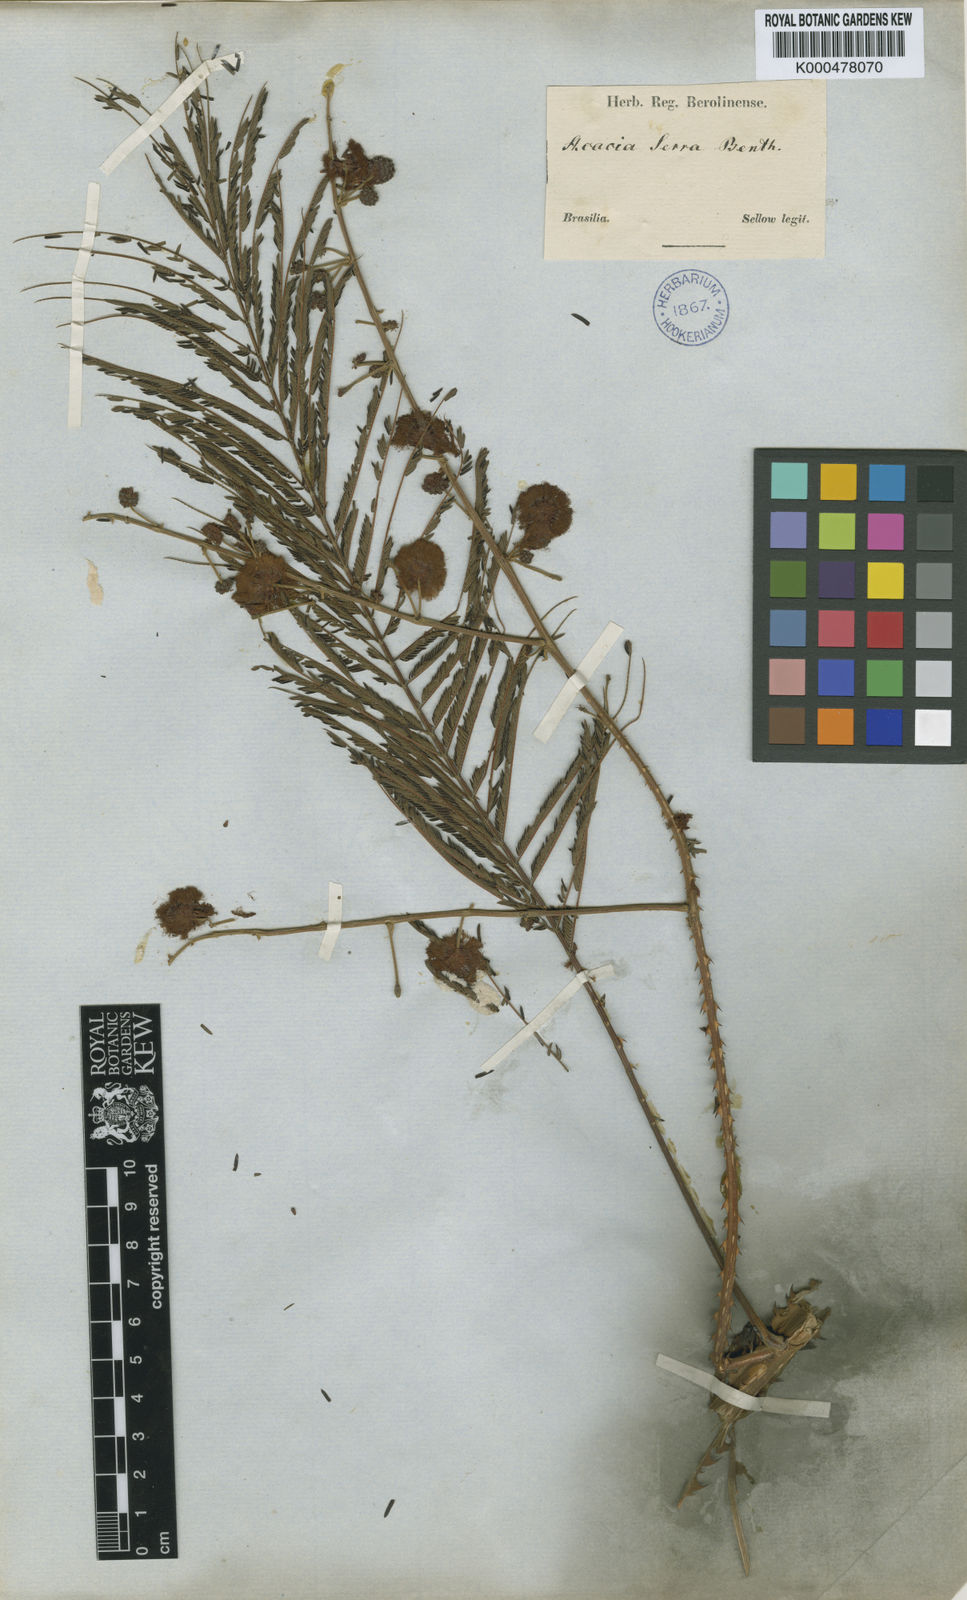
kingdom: Plantae
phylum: Tracheophyta
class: Magnoliopsida
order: Fabales
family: Fabaceae
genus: Senegalia
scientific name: Senegalia serra
